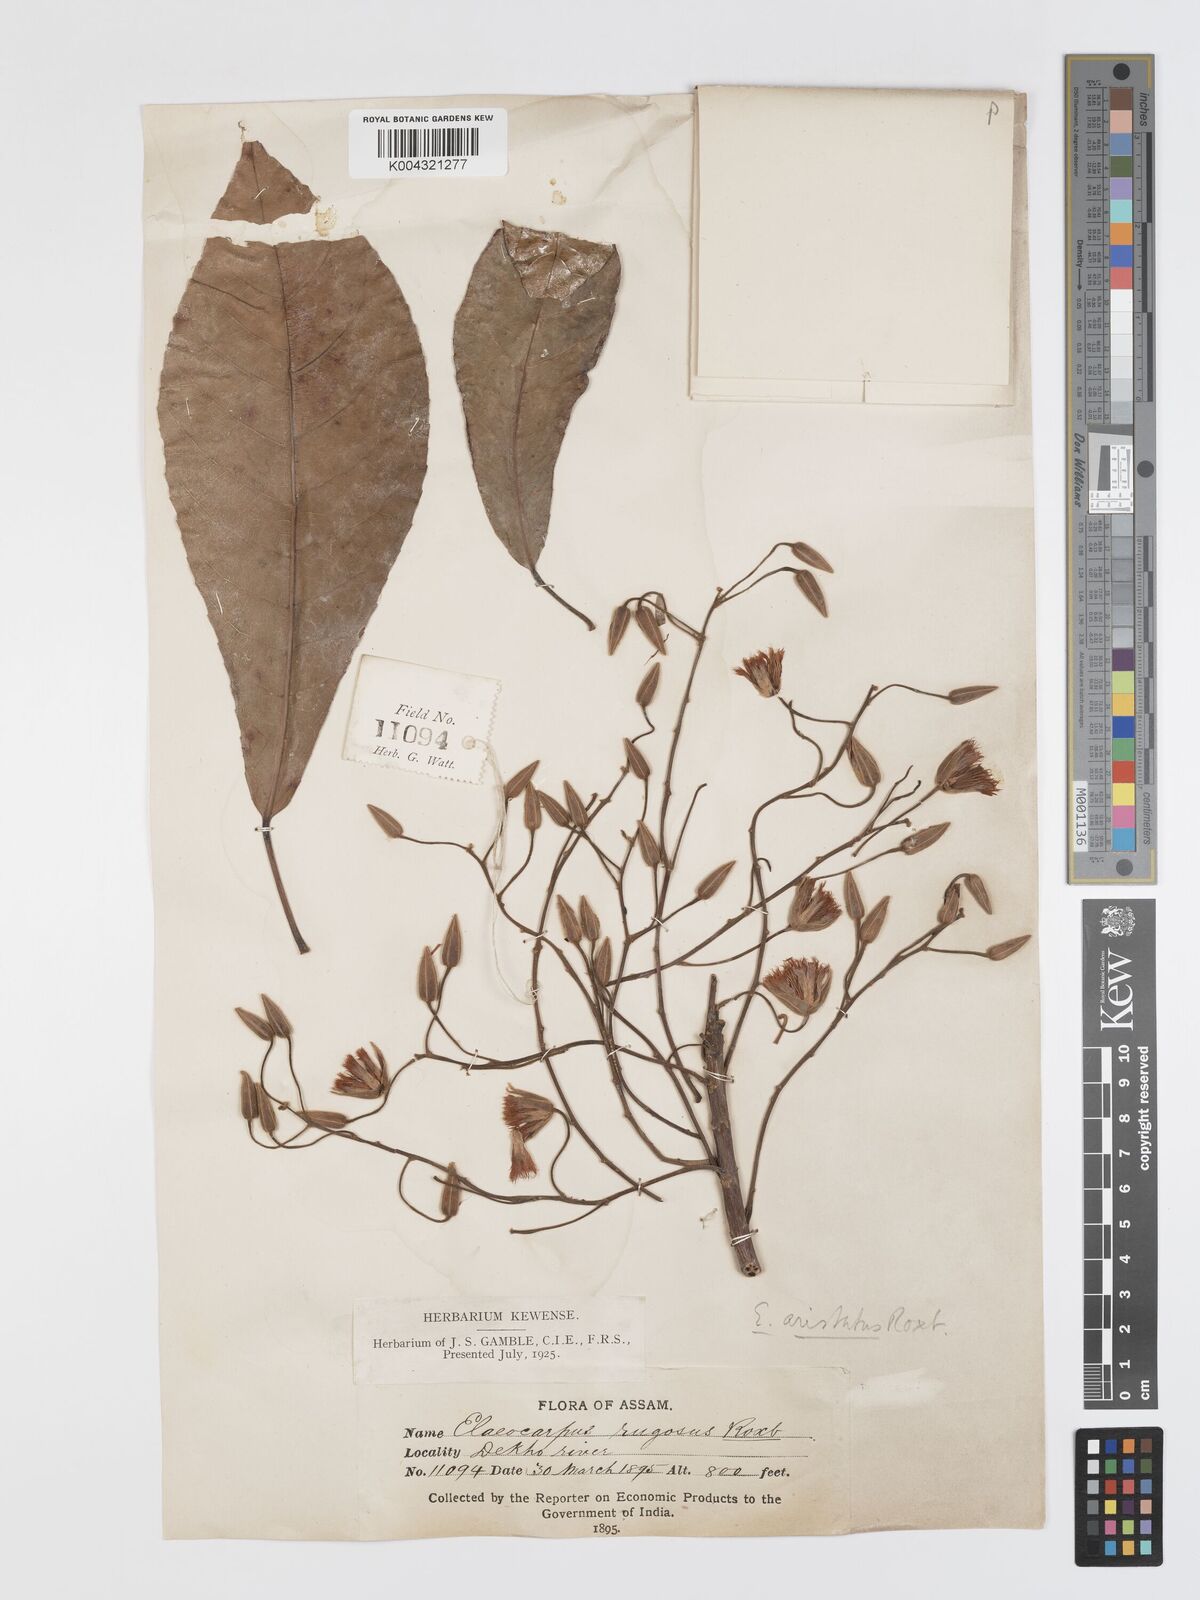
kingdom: Plantae
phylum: Tracheophyta
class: Magnoliopsida
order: Oxalidales
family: Elaeocarpaceae
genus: Elaeocarpus
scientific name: Elaeocarpus aristatus
